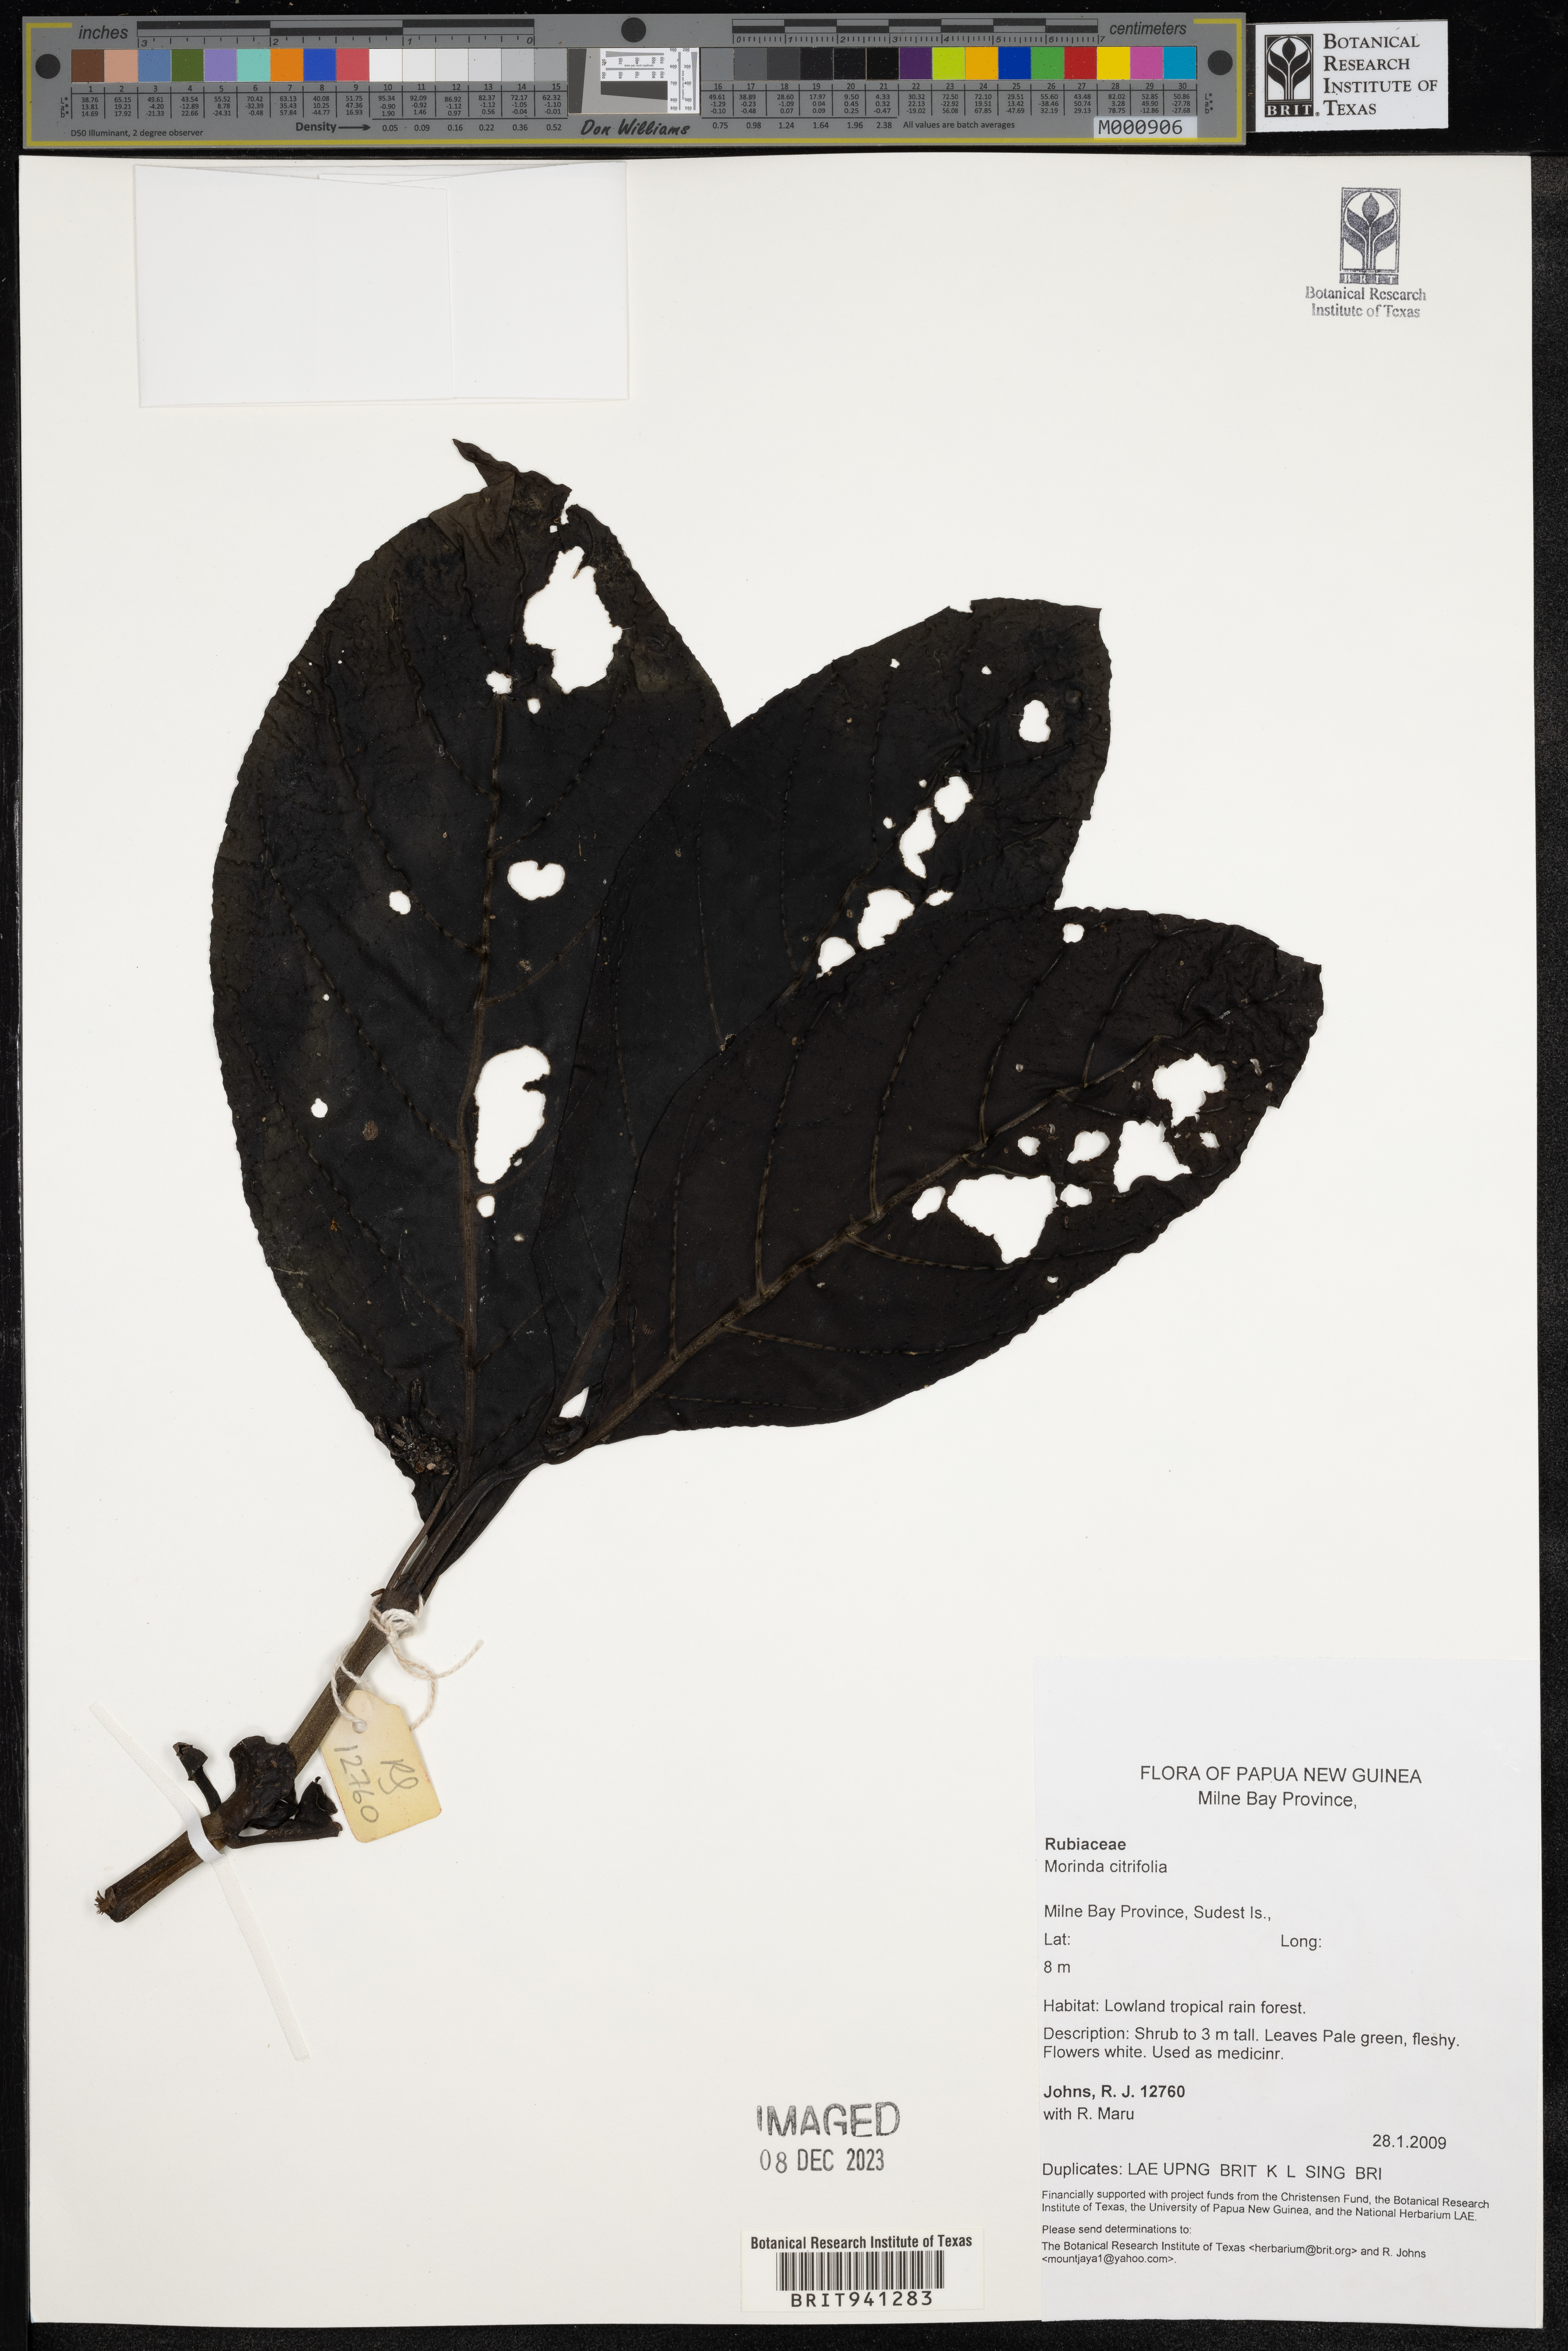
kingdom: Plantae
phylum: Tracheophyta
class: Magnoliopsida
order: Gentianales
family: Rubiaceae
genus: Morinda
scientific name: Morinda citrifolia
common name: Indian-mulberry
